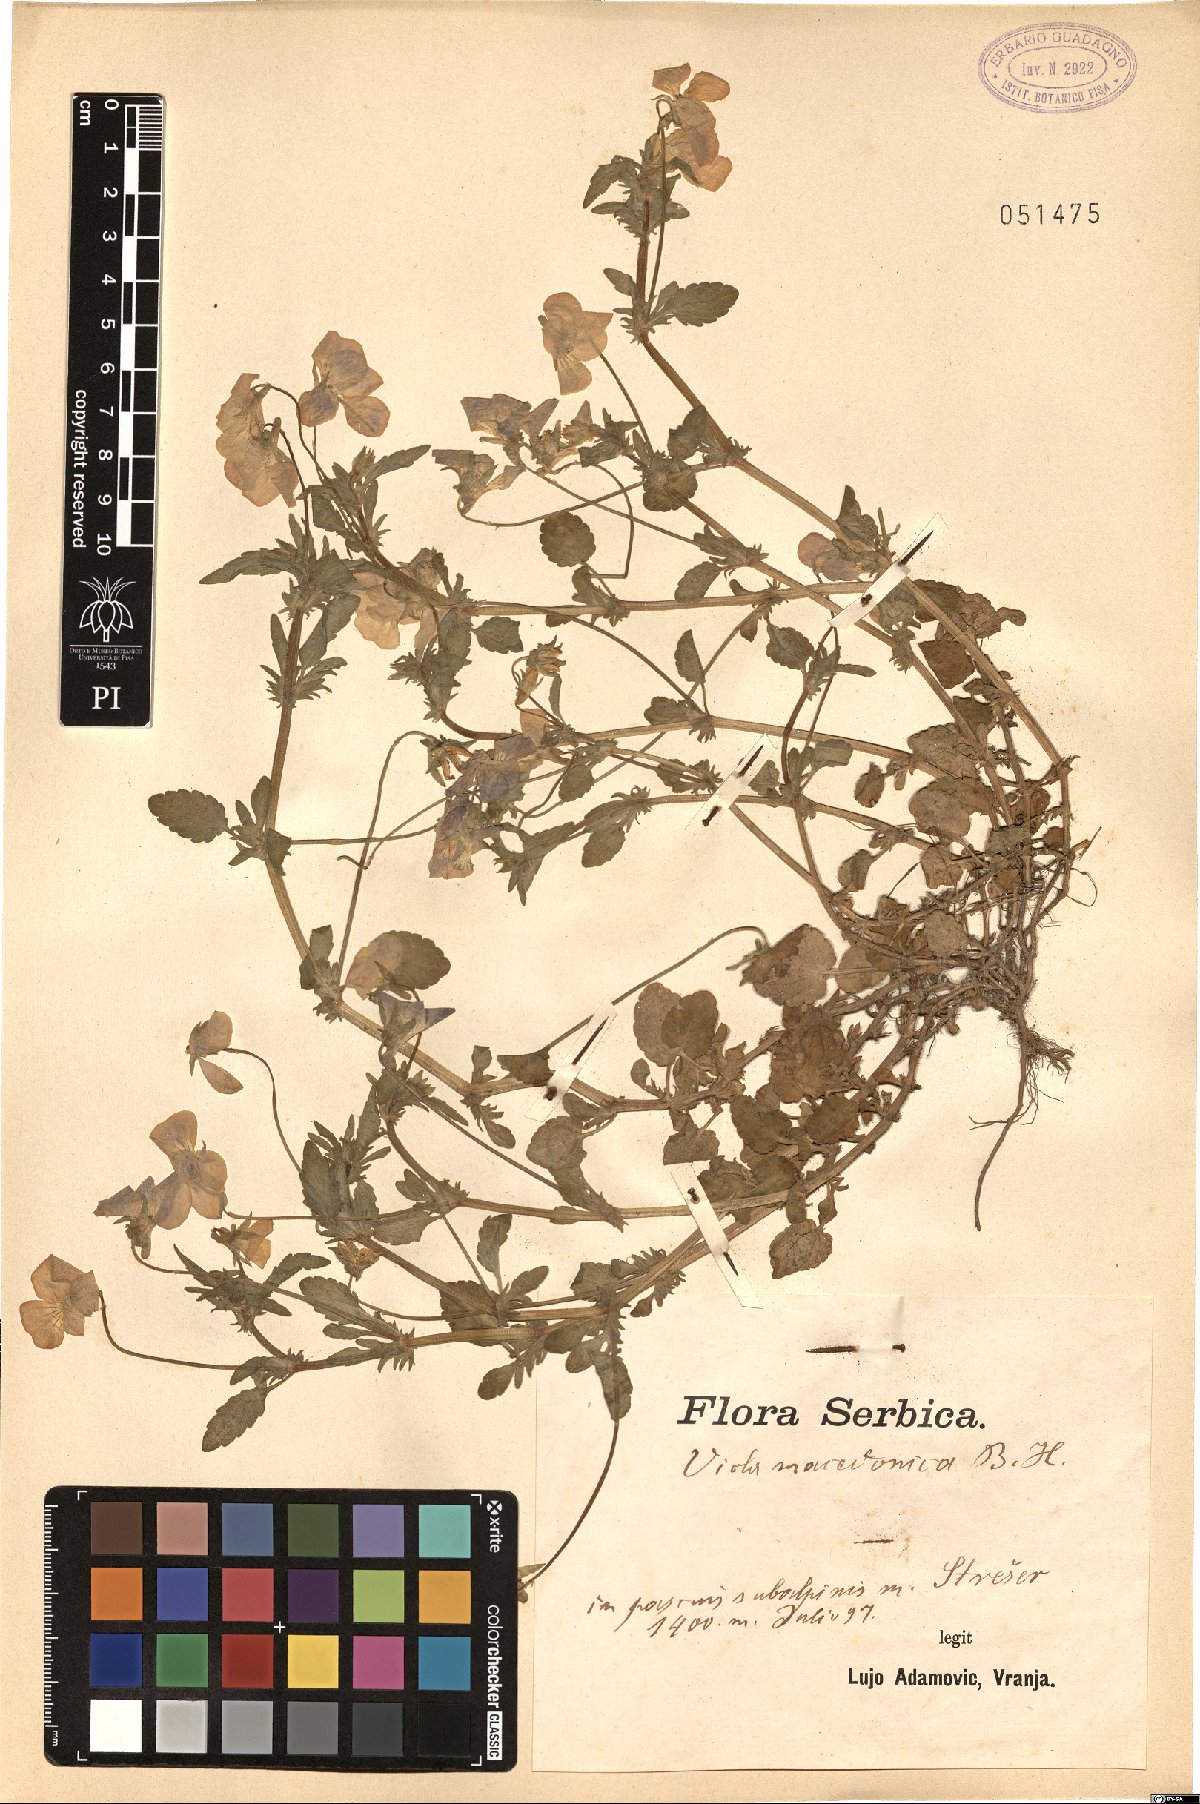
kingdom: Plantae
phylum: Tracheophyta
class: Magnoliopsida
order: Malpighiales
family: Violaceae
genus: Viola
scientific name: Viola tricolor
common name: Pansy
